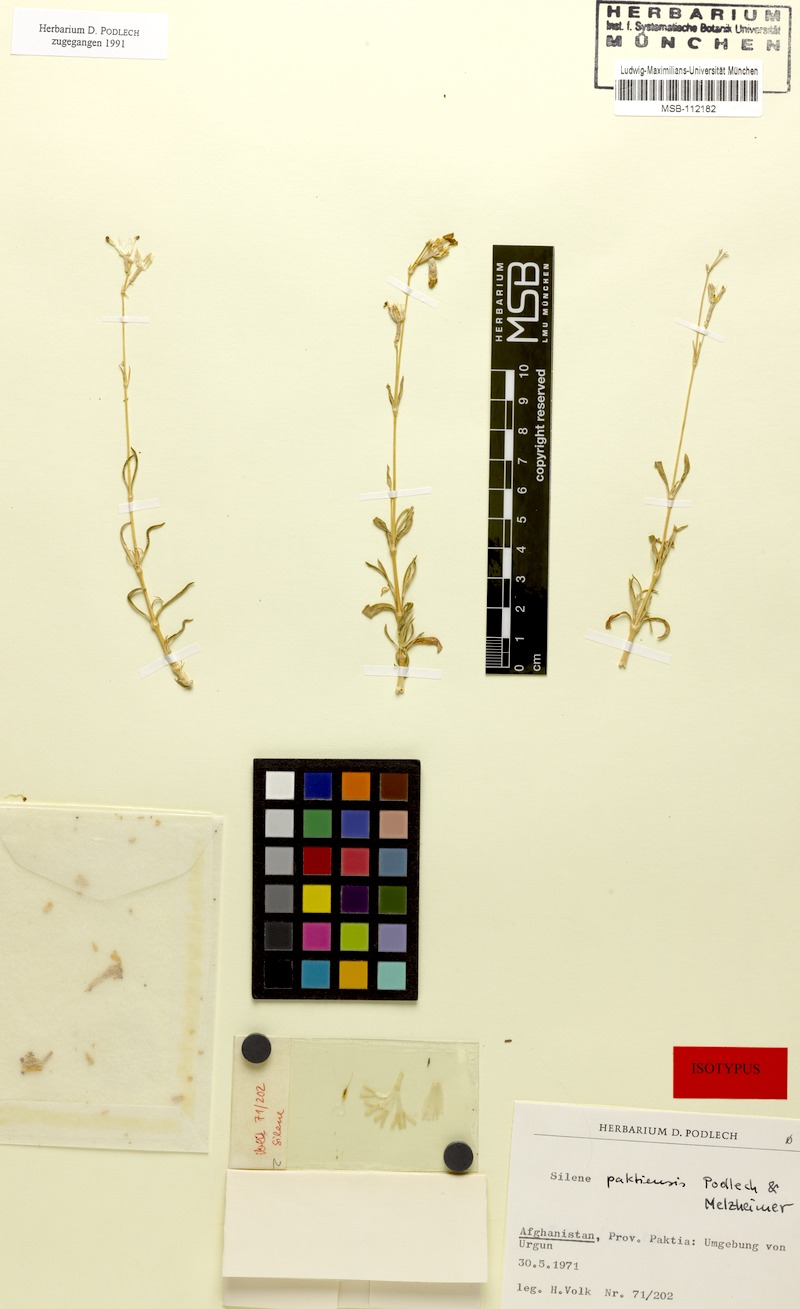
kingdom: Plantae
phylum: Tracheophyta
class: Magnoliopsida
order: Caryophyllales
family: Caryophyllaceae
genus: Silene
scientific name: Silene paktiensis
